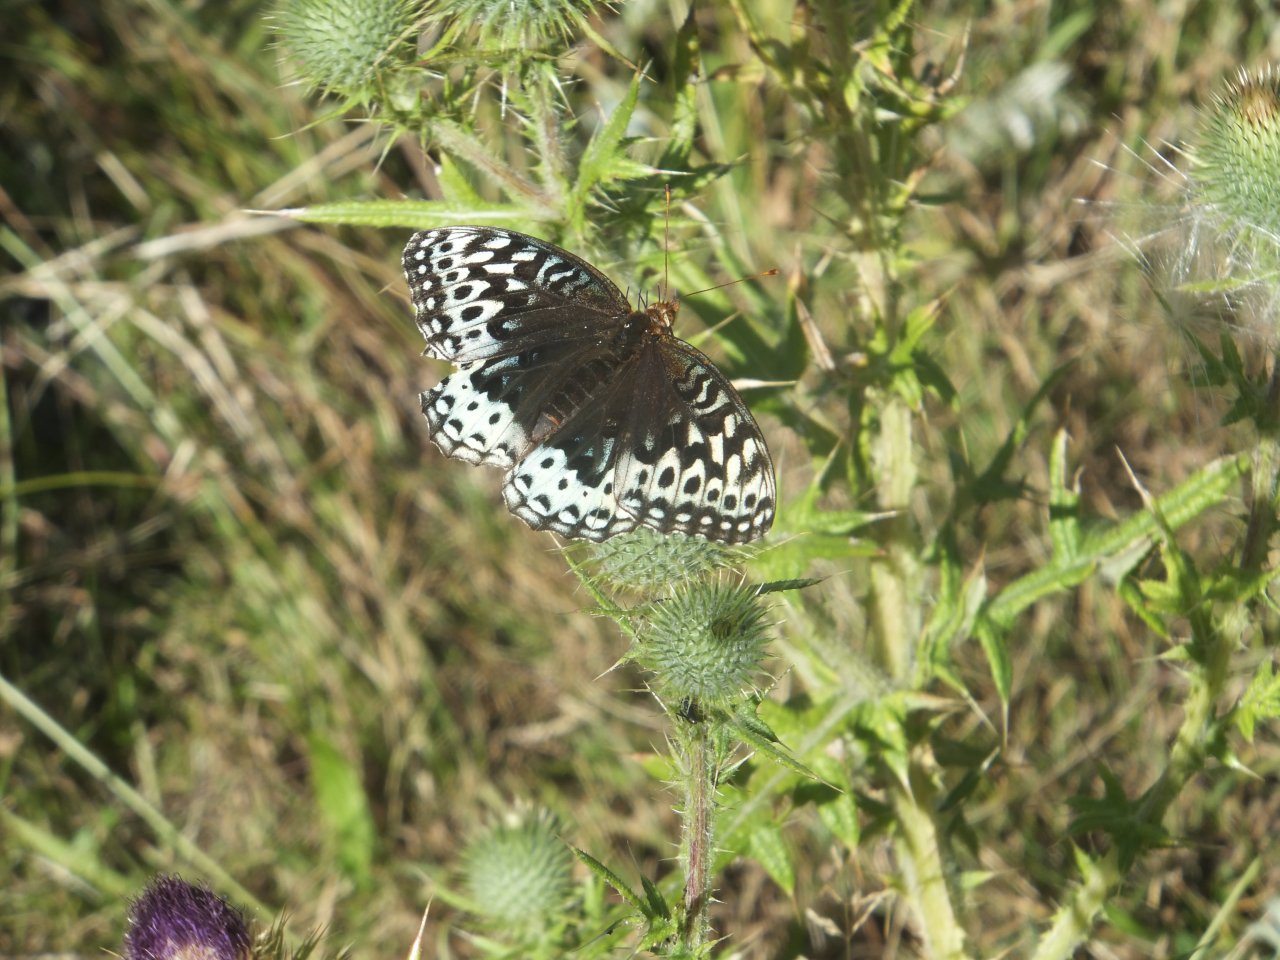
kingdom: Animalia
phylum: Arthropoda
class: Insecta
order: Lepidoptera
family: Nymphalidae
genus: Speyeria
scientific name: Speyeria cybele
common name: Great Spangled Fritillary
